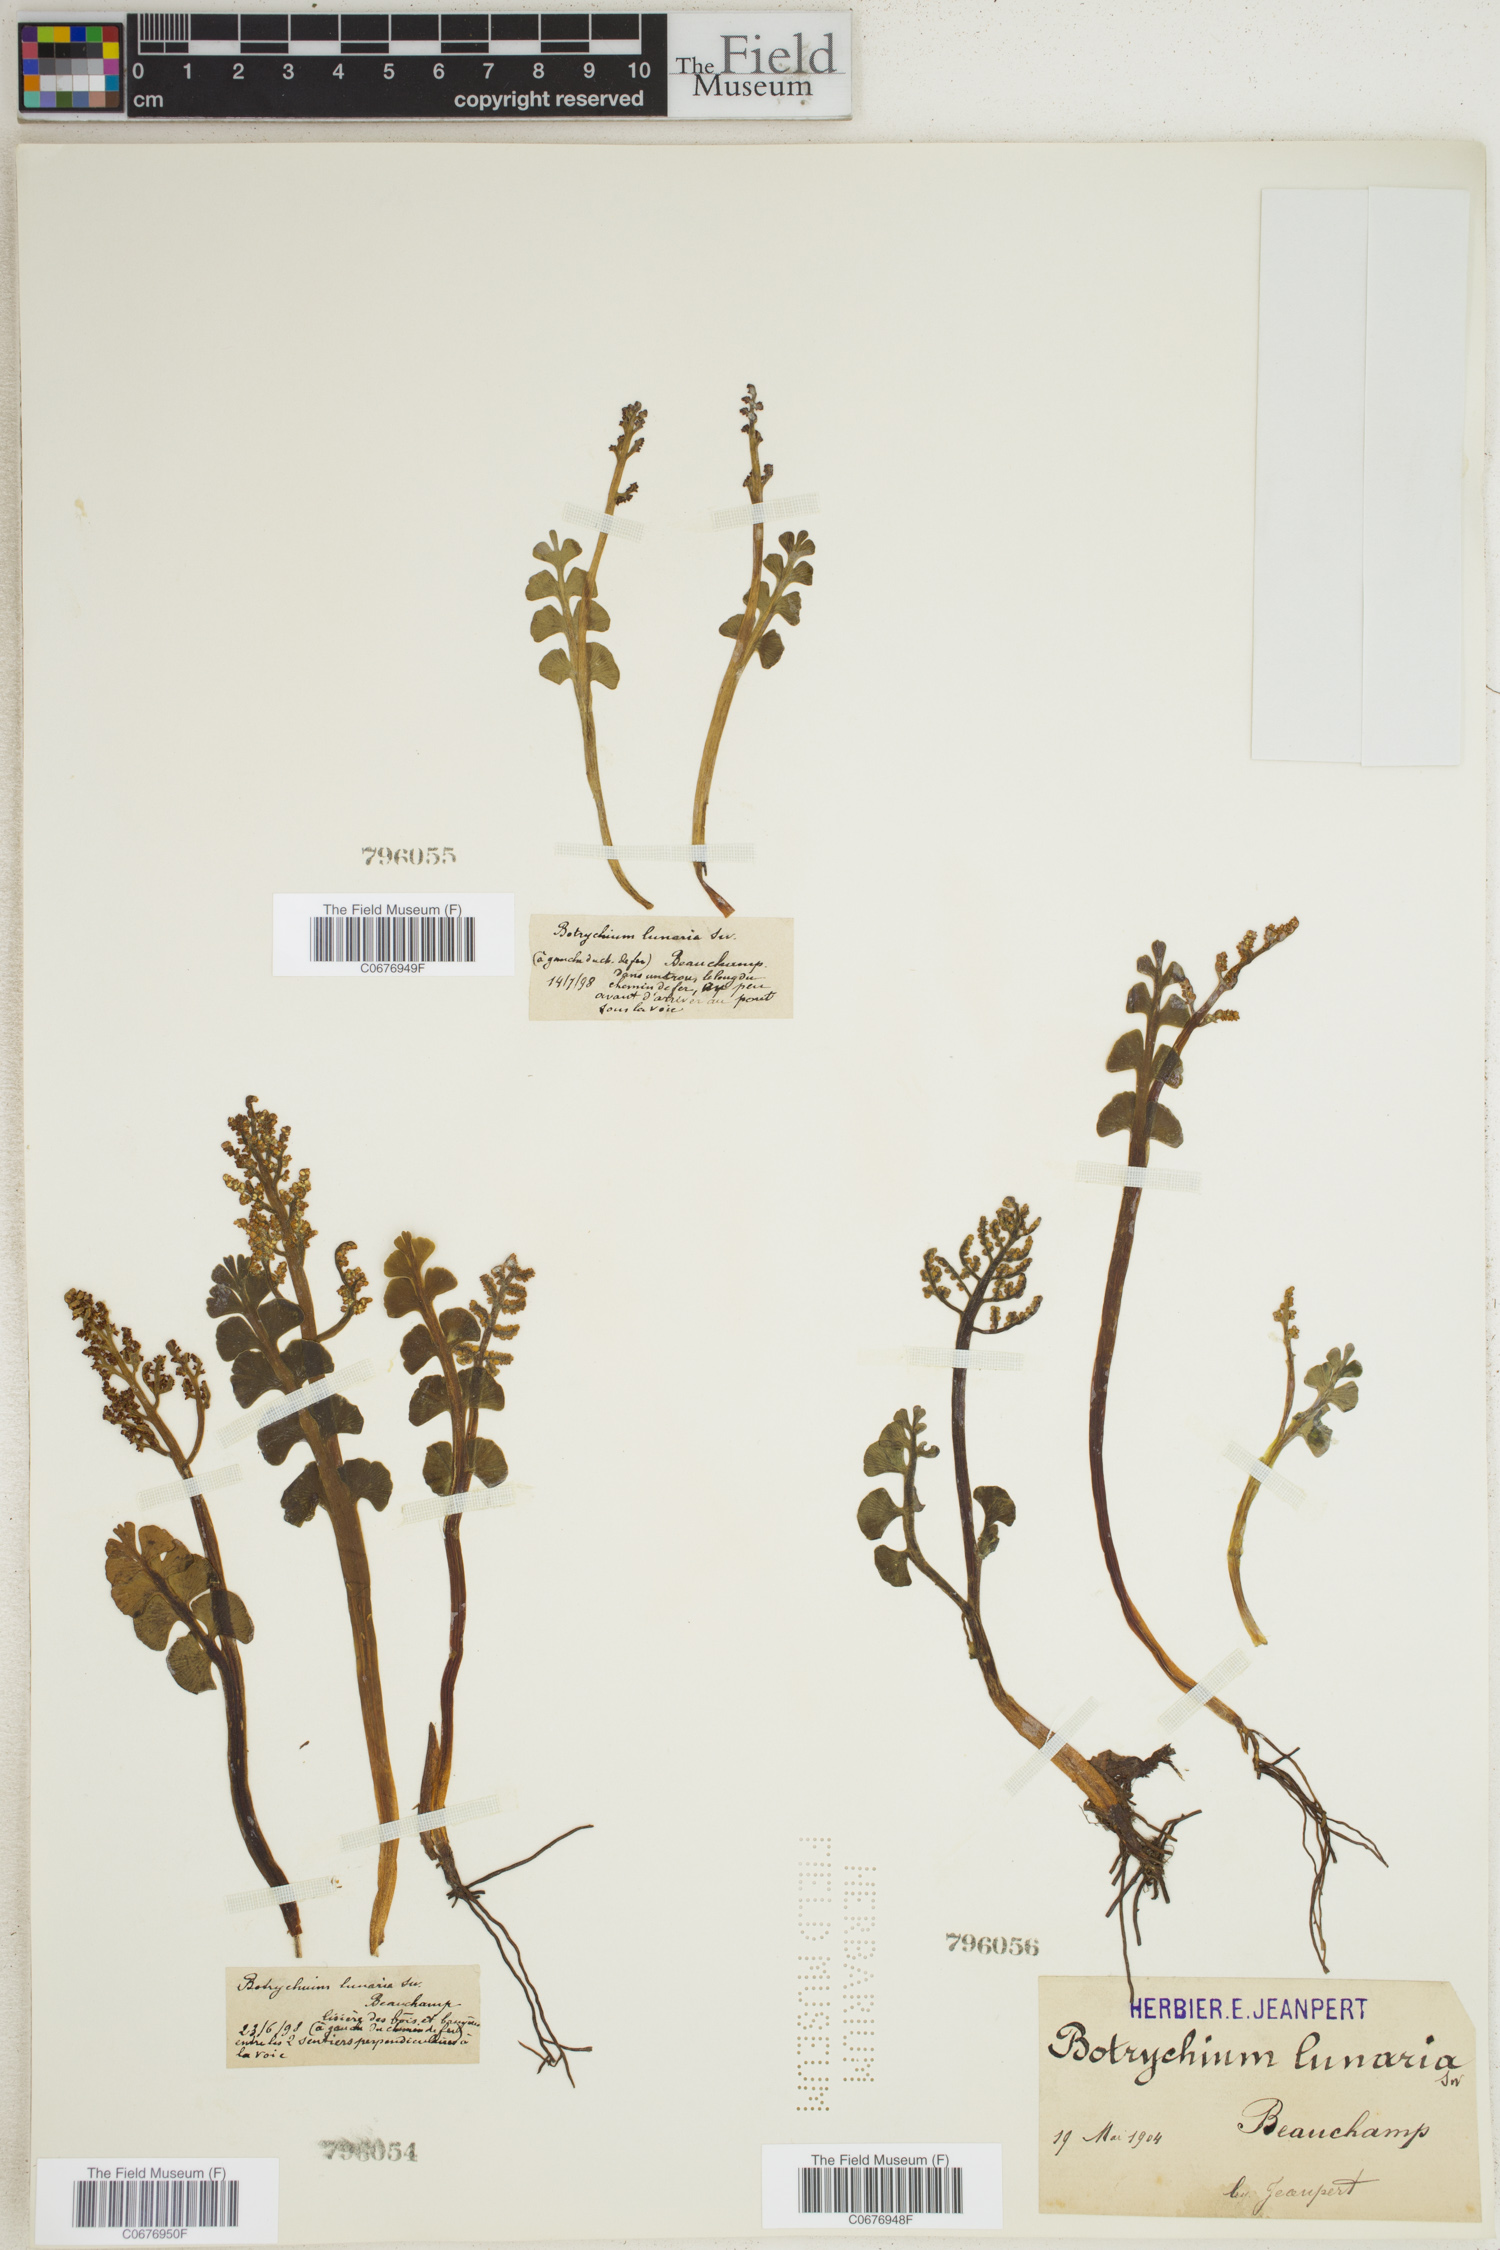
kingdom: Plantae
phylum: Tracheophyta
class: Polypodiopsida
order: Ophioglossales
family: Ophioglossaceae
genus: Botrychium
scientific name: Botrychium lunaria
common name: Moonwort
